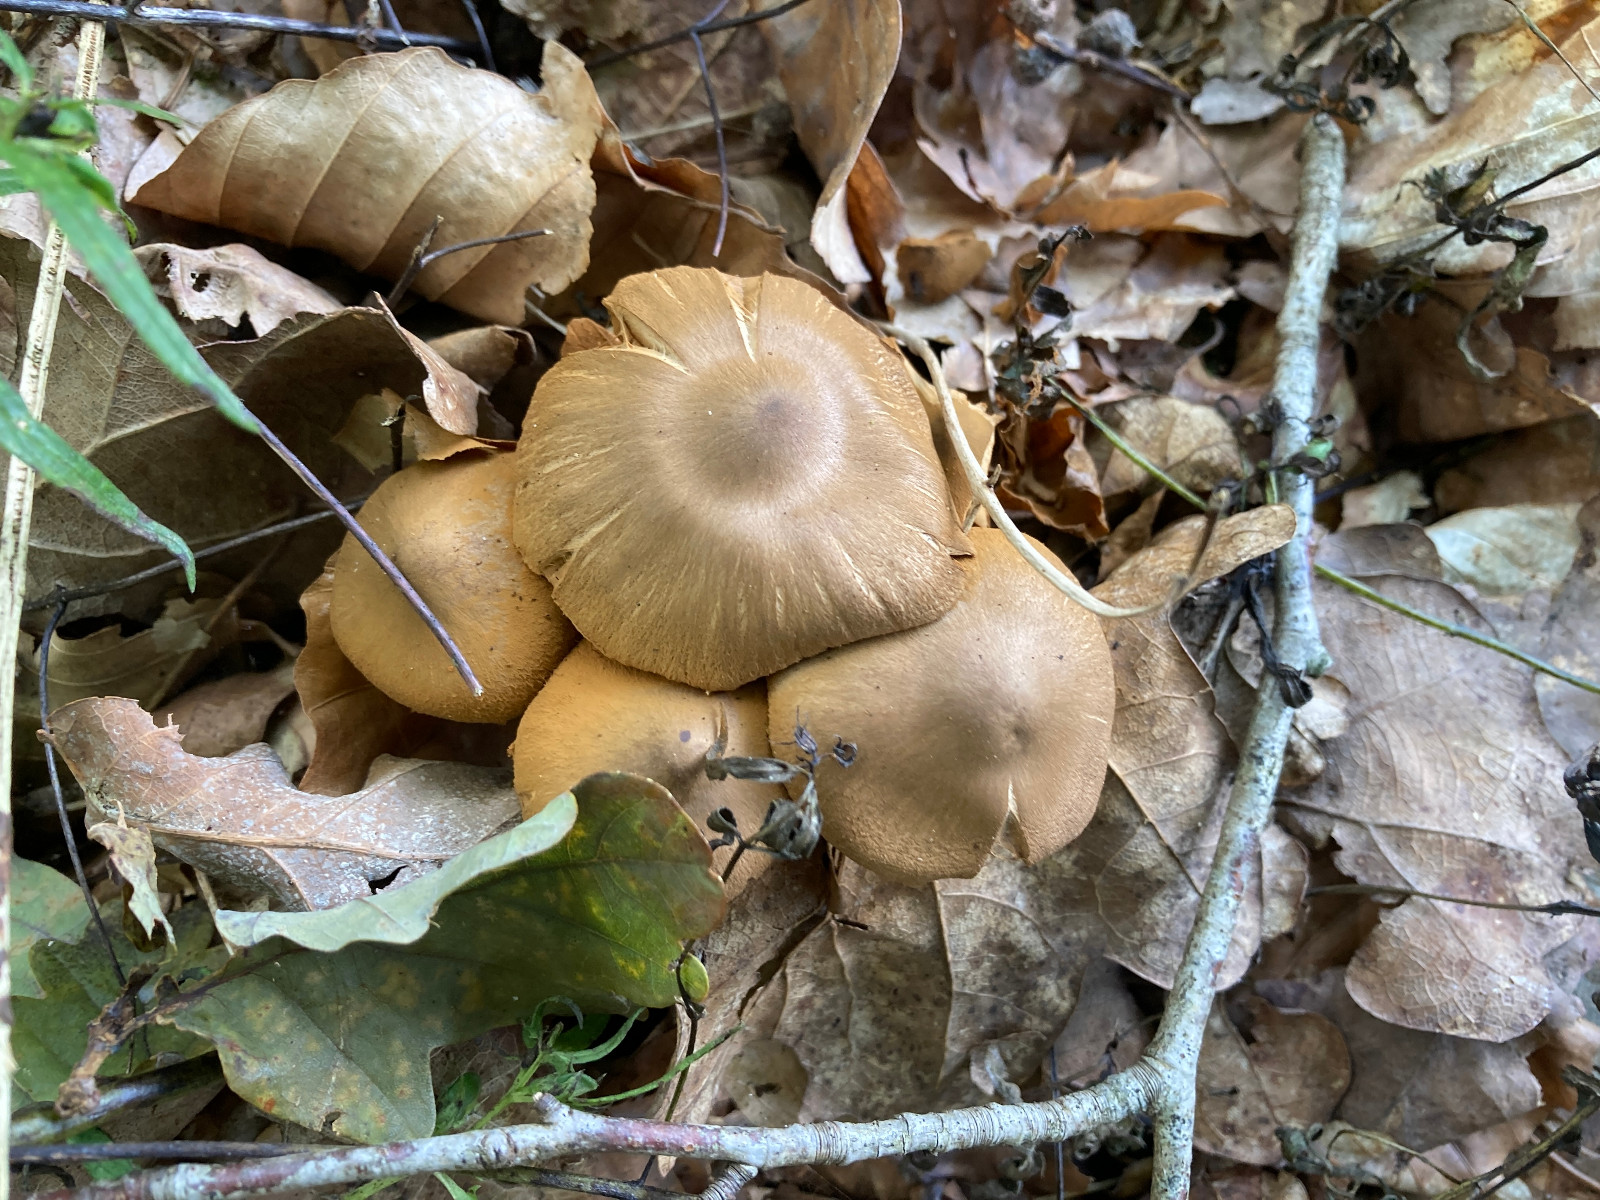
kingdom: Fungi
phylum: Basidiomycota
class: Agaricomycetes
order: Agaricales
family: Cortinariaceae
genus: Cortinarius
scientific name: Cortinarius
